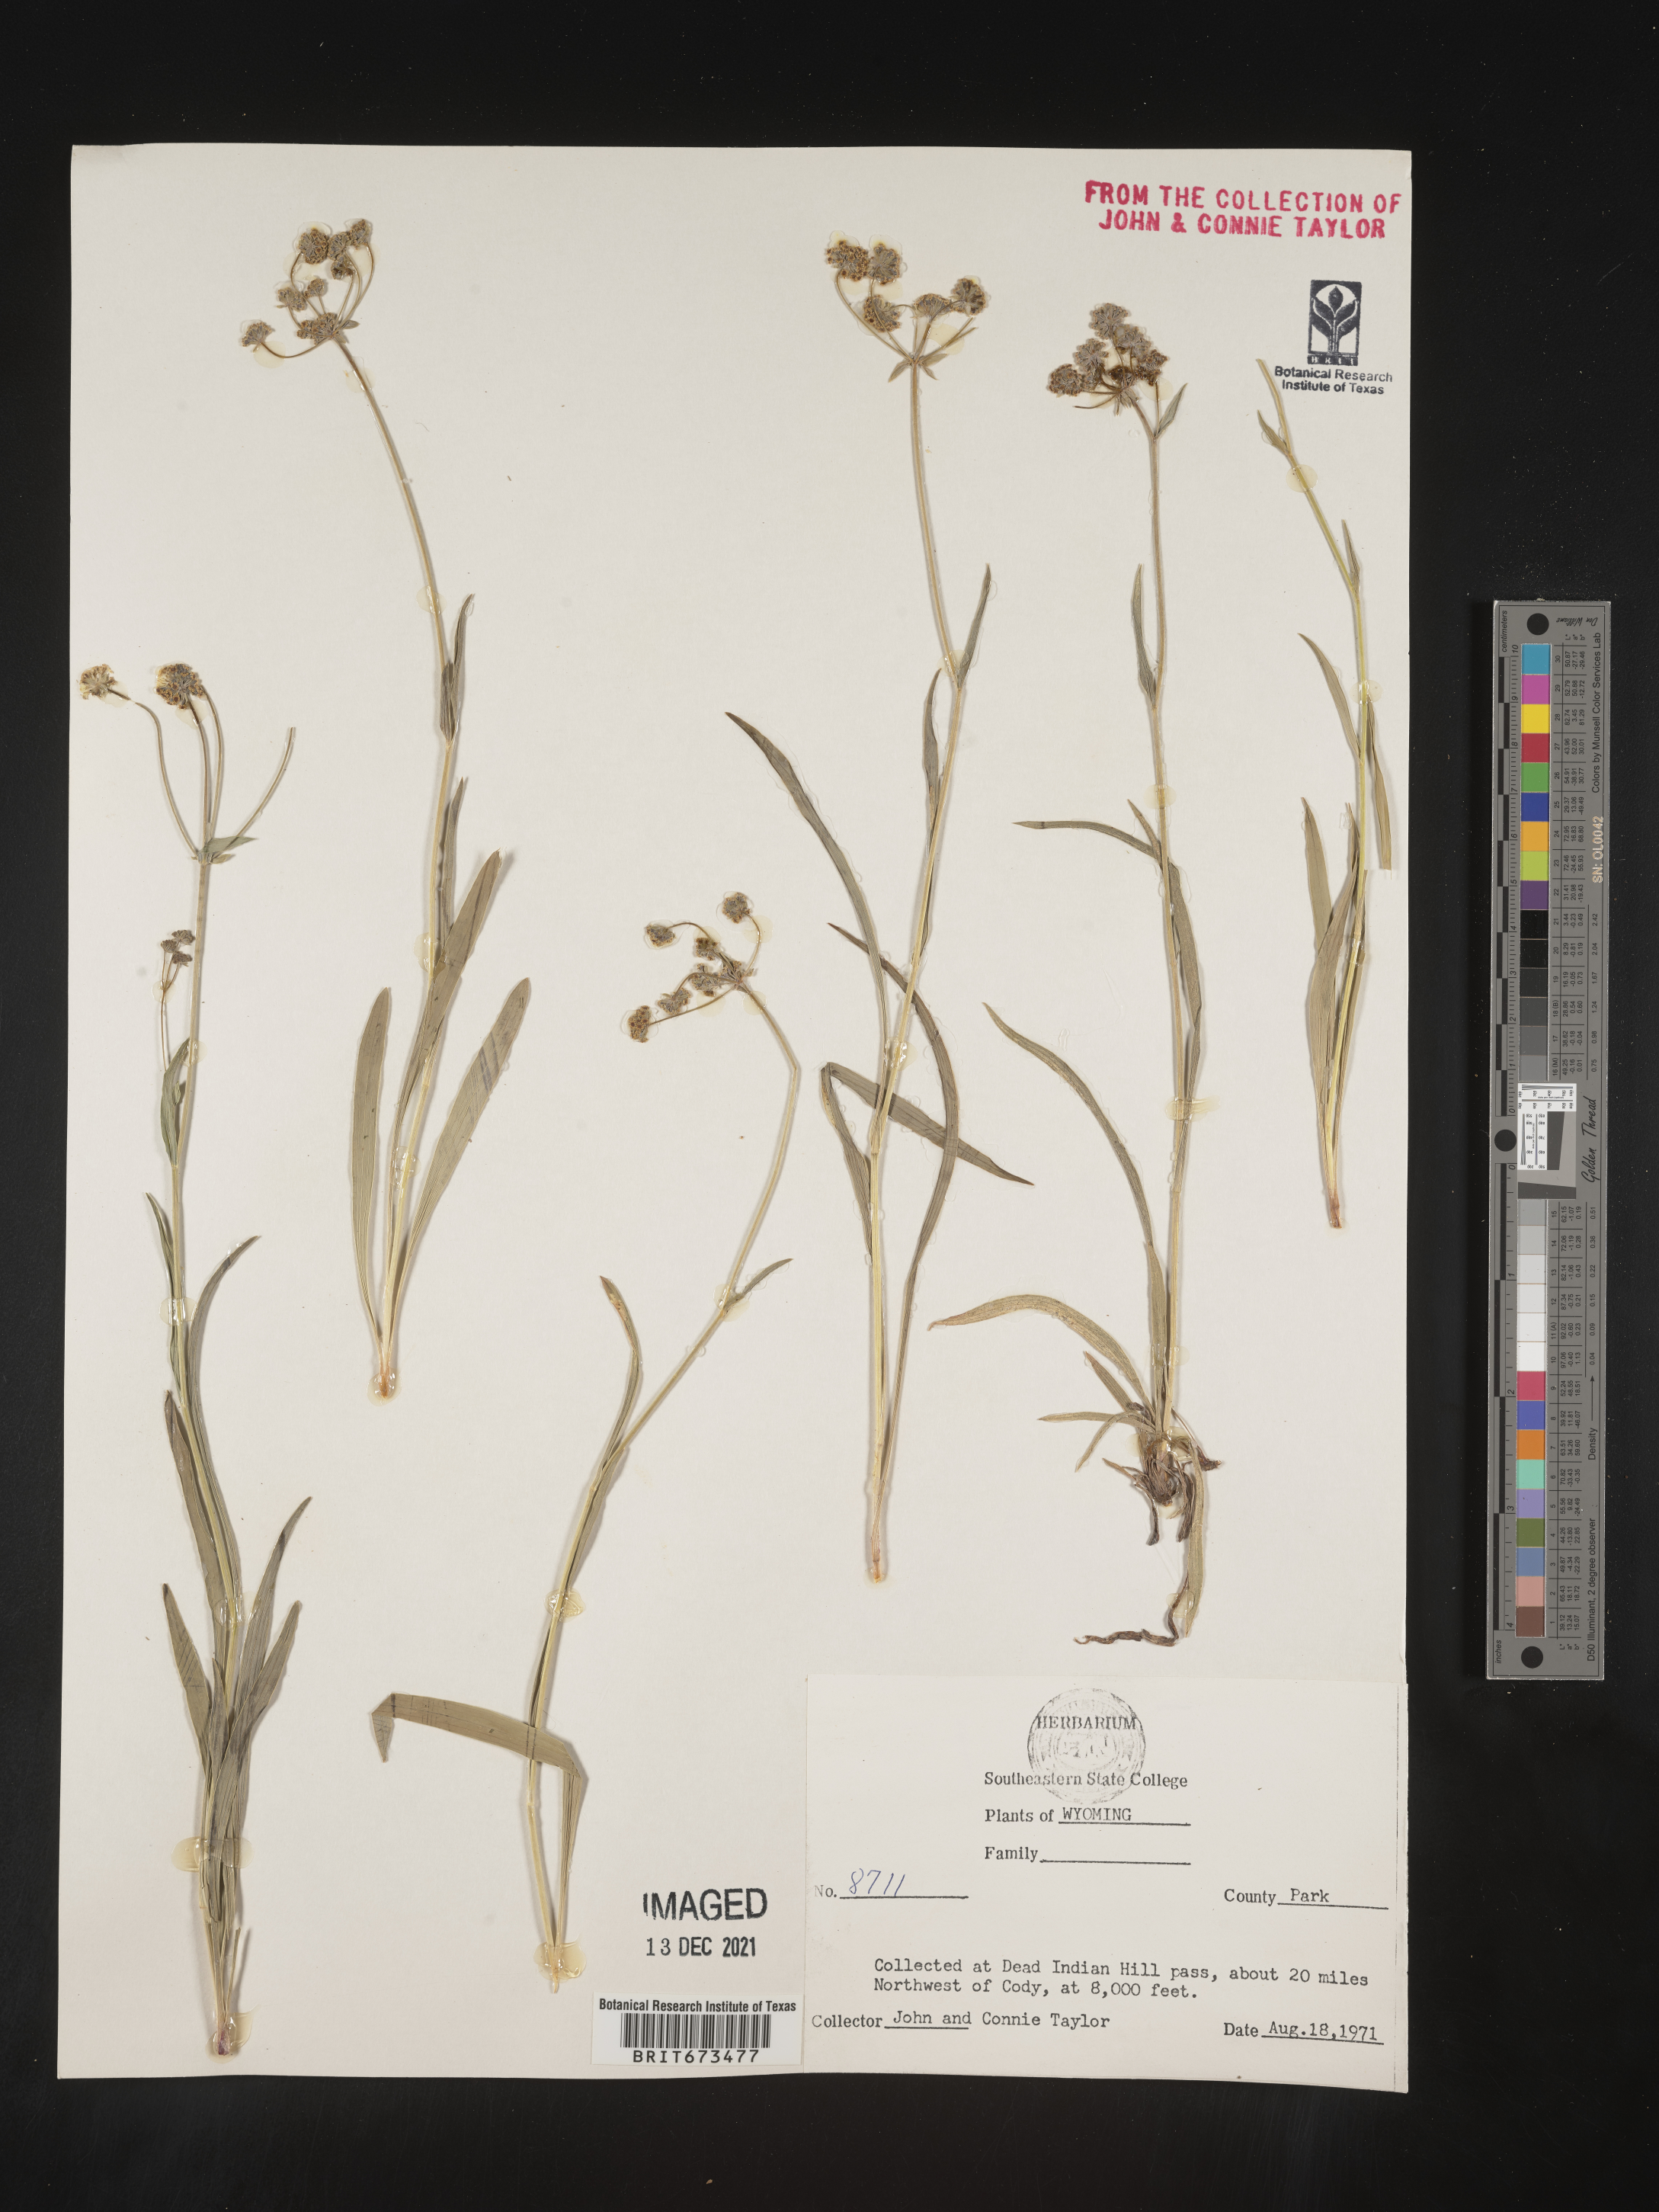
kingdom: Plantae
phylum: Tracheophyta
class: Magnoliopsida
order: Apiales
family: Apiaceae
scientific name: Apiaceae
